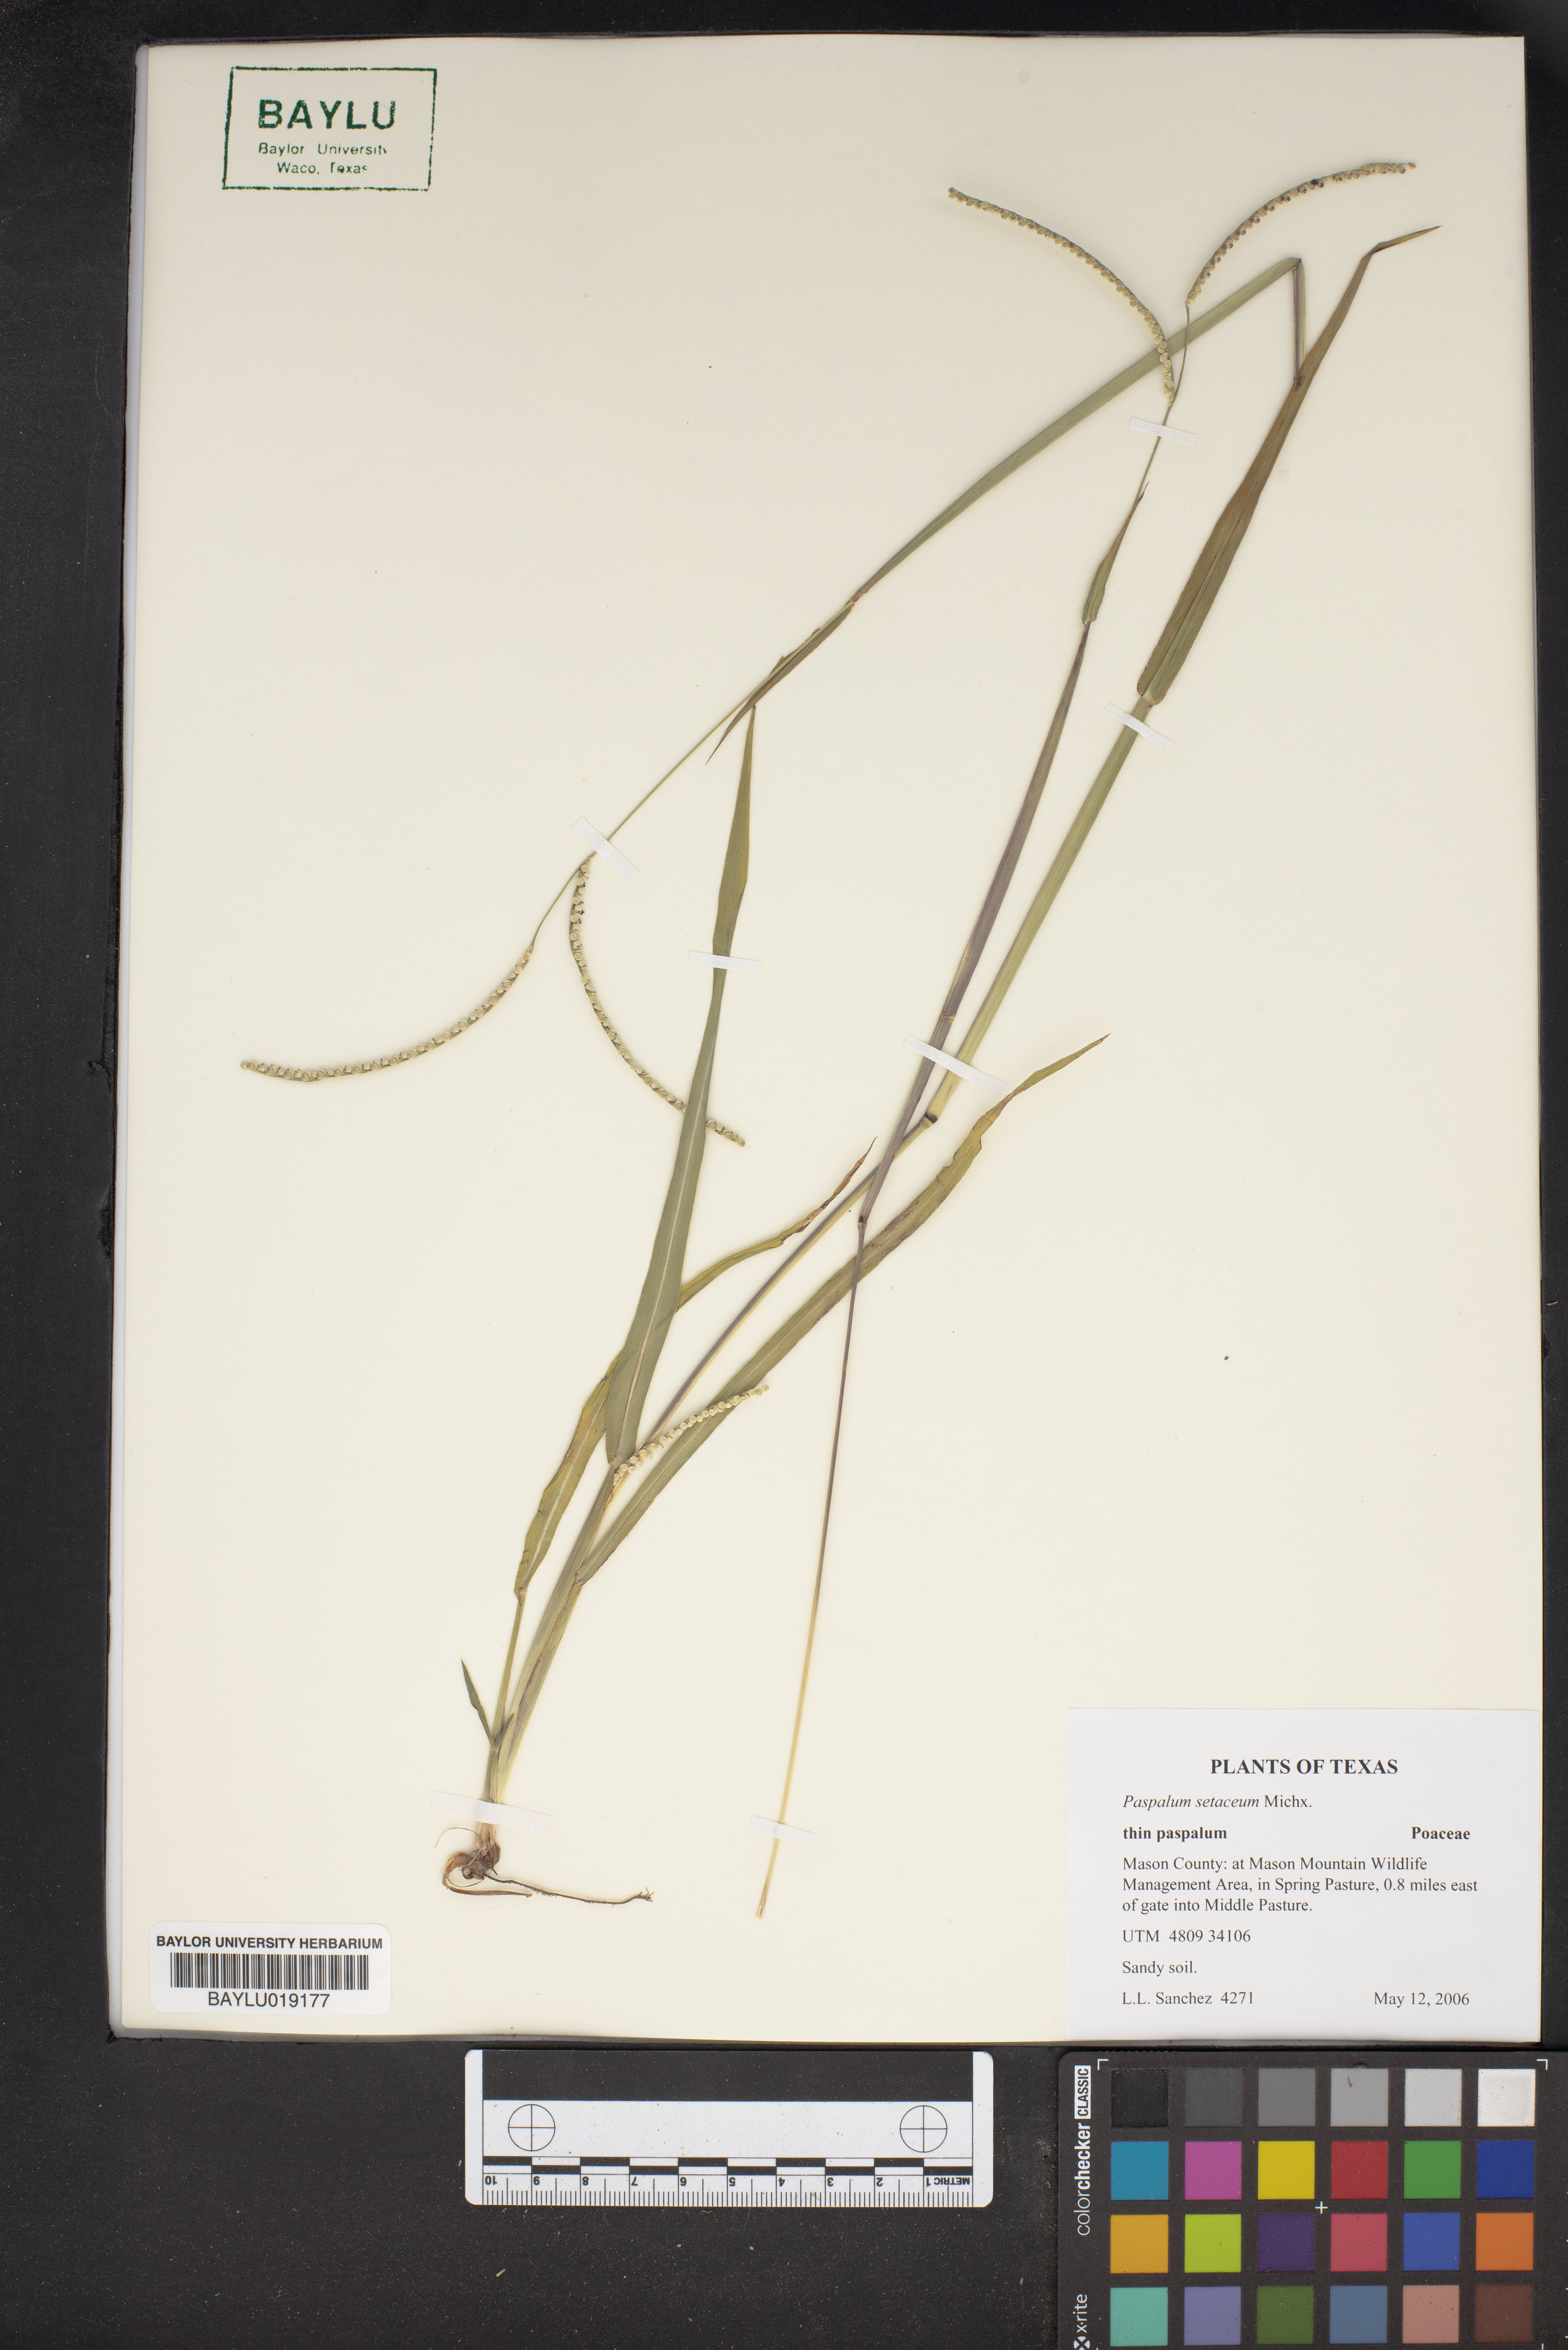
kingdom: Plantae
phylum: Tracheophyta
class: Liliopsida
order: Poales
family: Poaceae
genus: Paspalum
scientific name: Paspalum setaceum
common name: Slender paspalum
